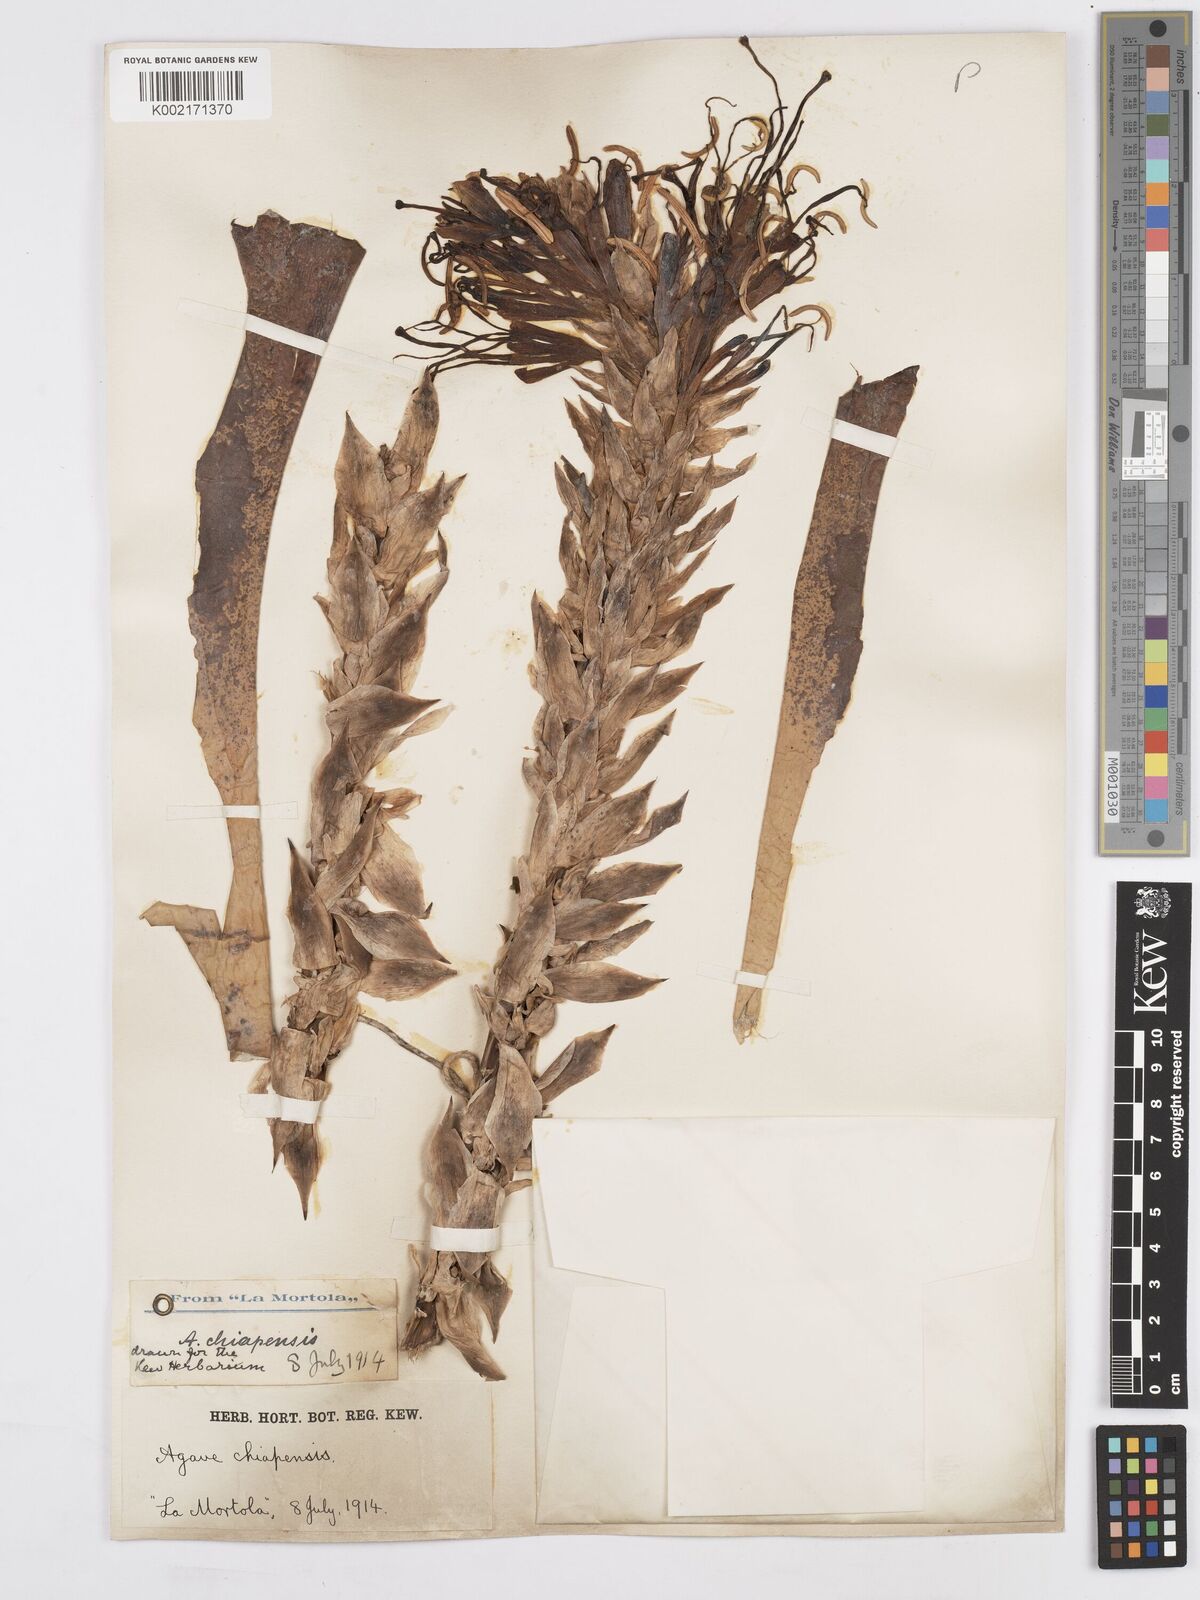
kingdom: Plantae
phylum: Tracheophyta
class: Liliopsida
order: Asparagales
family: Asparagaceae
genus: Agave
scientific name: Agave chiapensis
